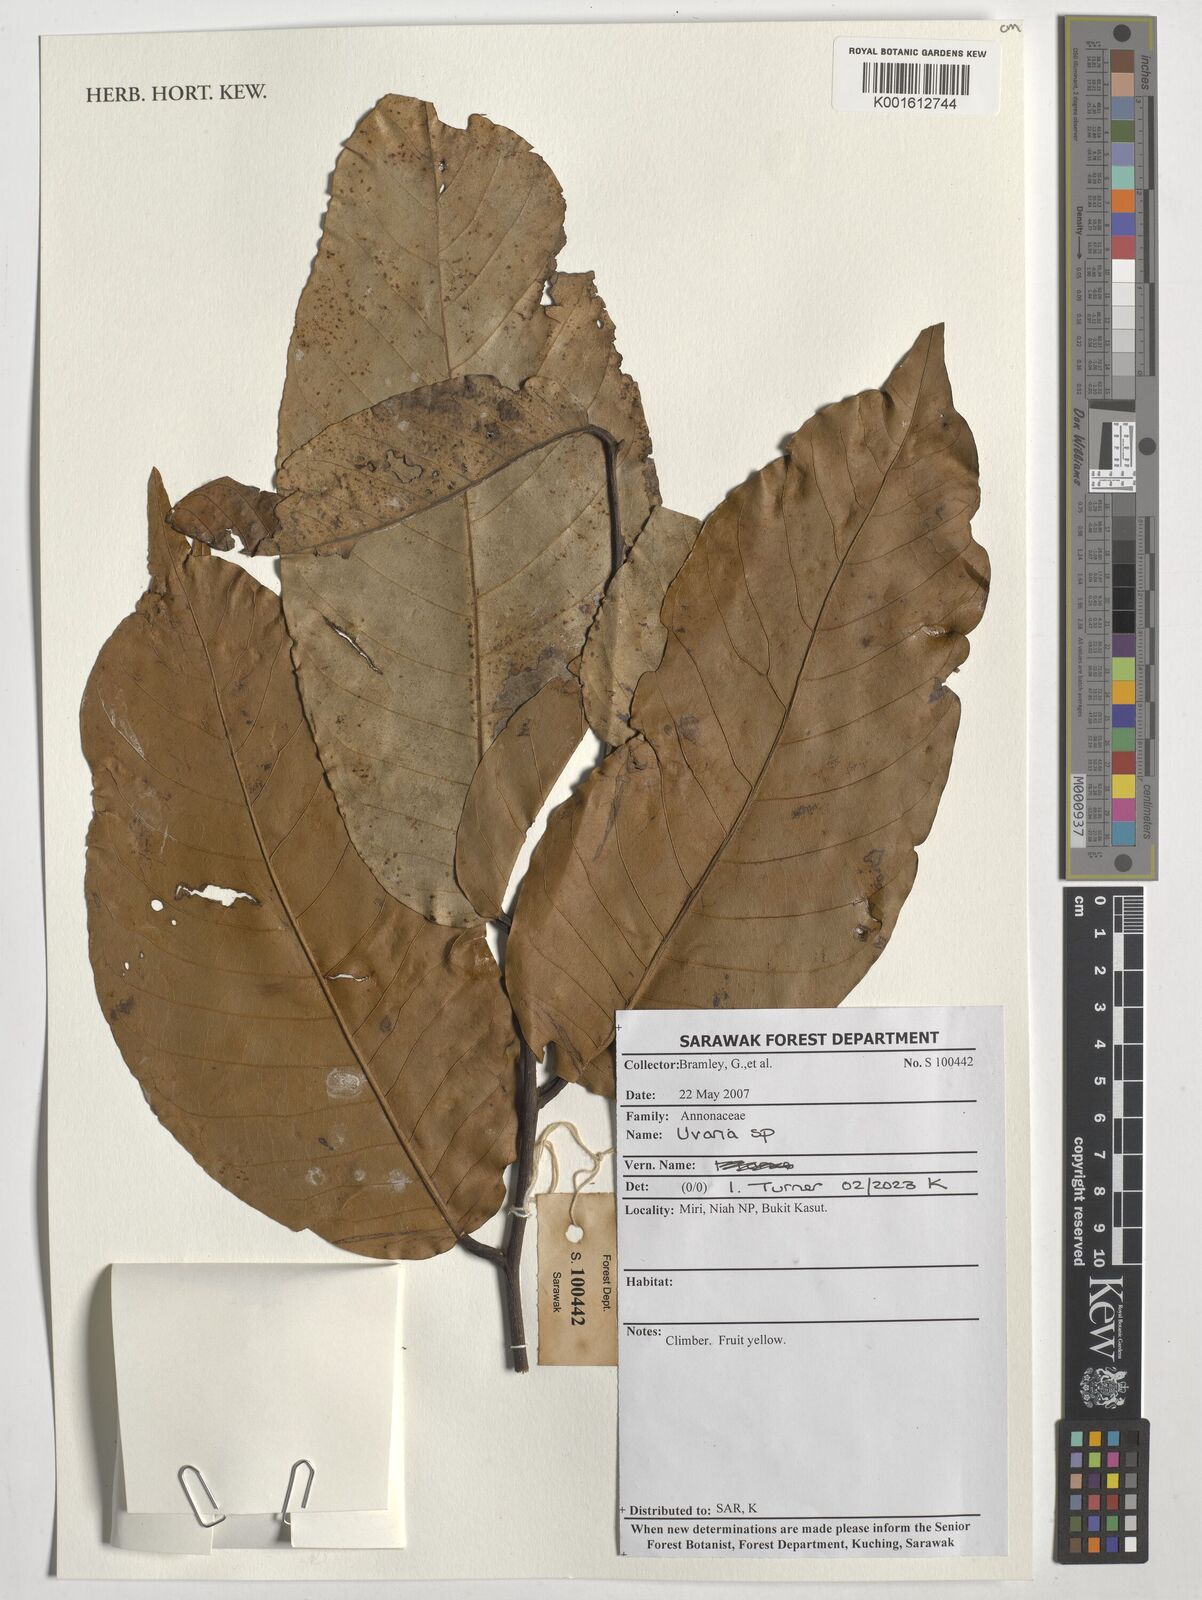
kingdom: Plantae
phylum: Tracheophyta
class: Magnoliopsida
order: Magnoliales
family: Annonaceae
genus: Uvaria
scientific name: Uvaria
